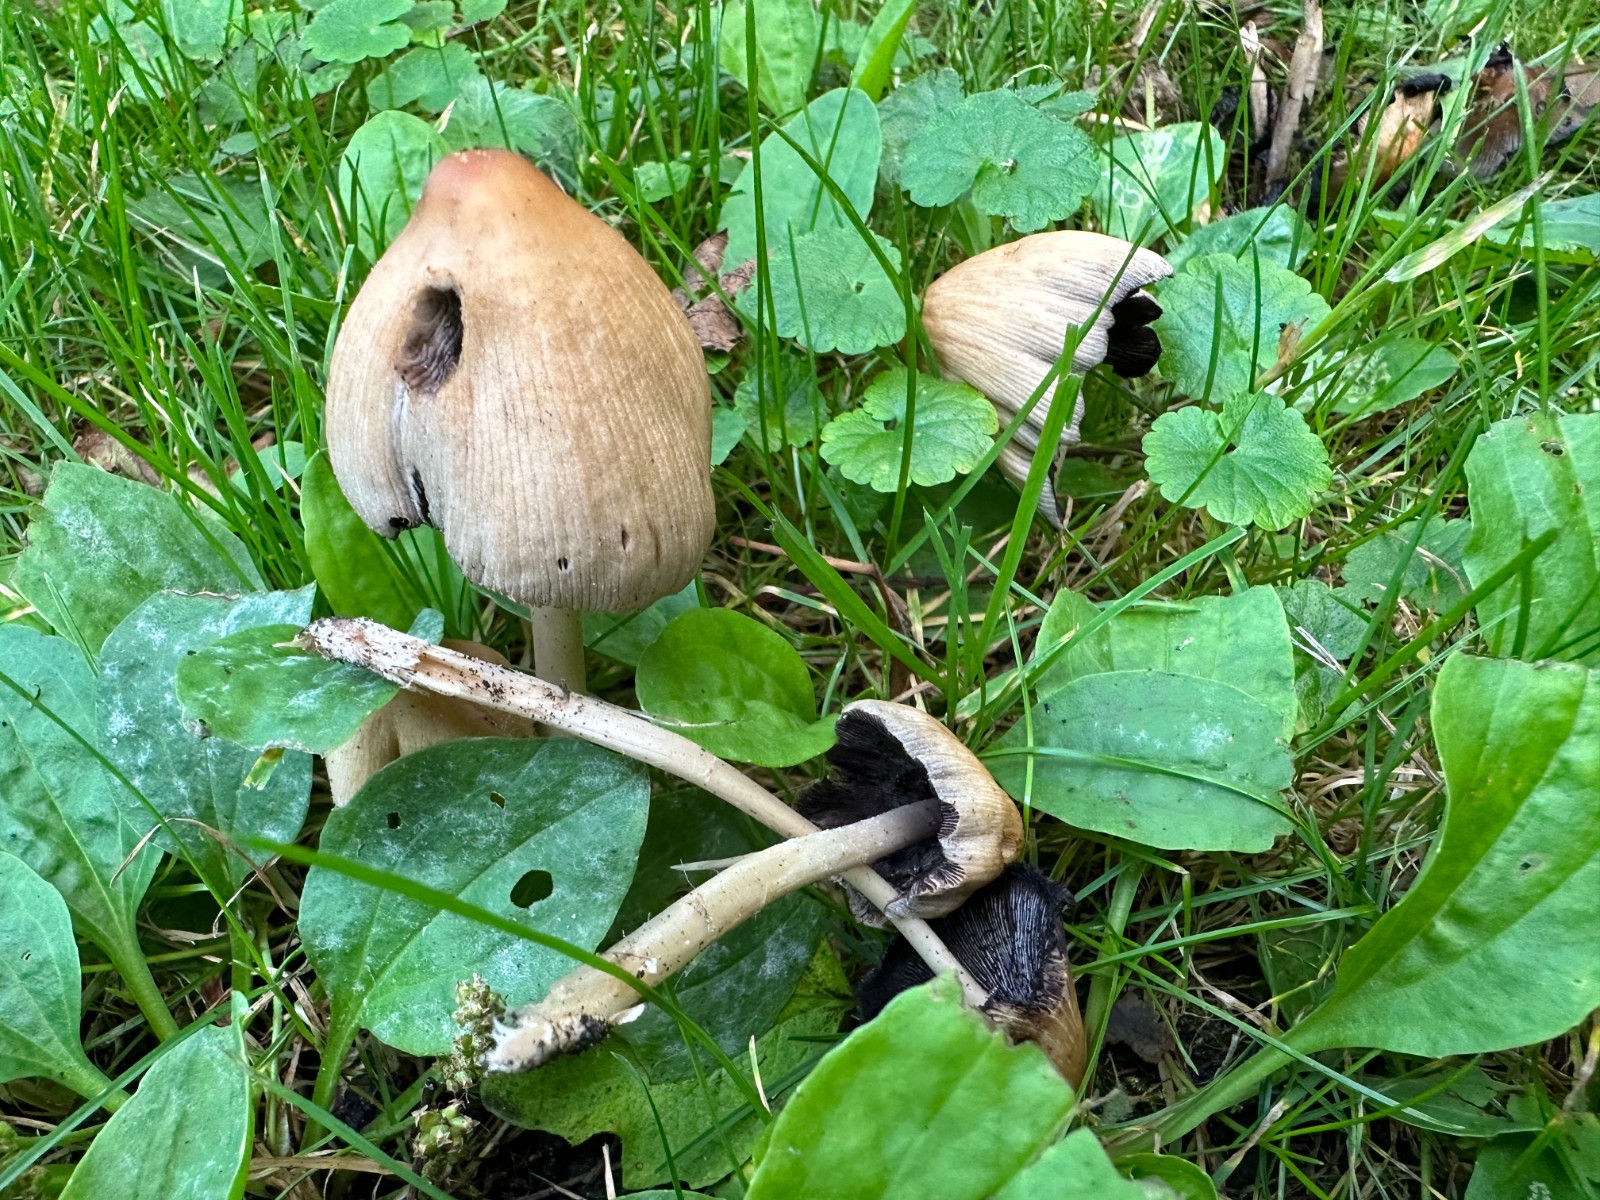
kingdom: Fungi
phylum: Basidiomycota
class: Agaricomycetes
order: Agaricales
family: Psathyrellaceae
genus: Coprinellus
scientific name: Coprinellus micaceus
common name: glimmer-blækhat
